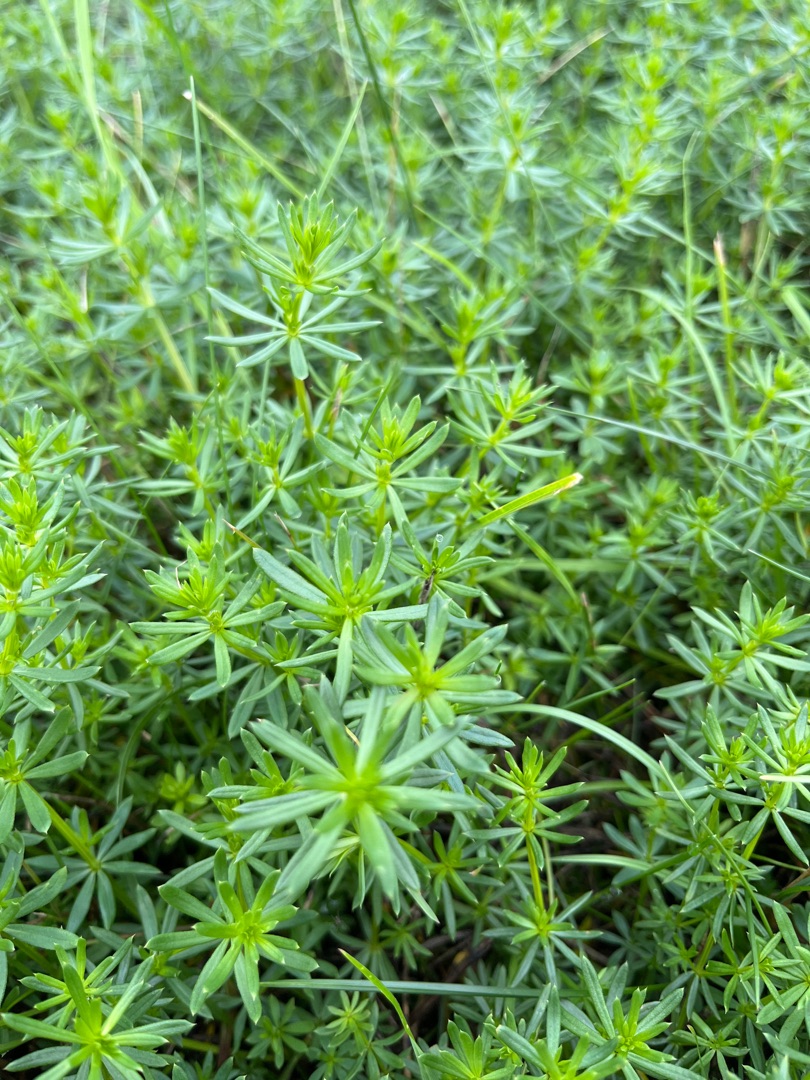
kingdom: Plantae
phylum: Tracheophyta
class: Magnoliopsida
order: Gentianales
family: Rubiaceae
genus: Galium
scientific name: Galium
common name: Hvidgul snerre
